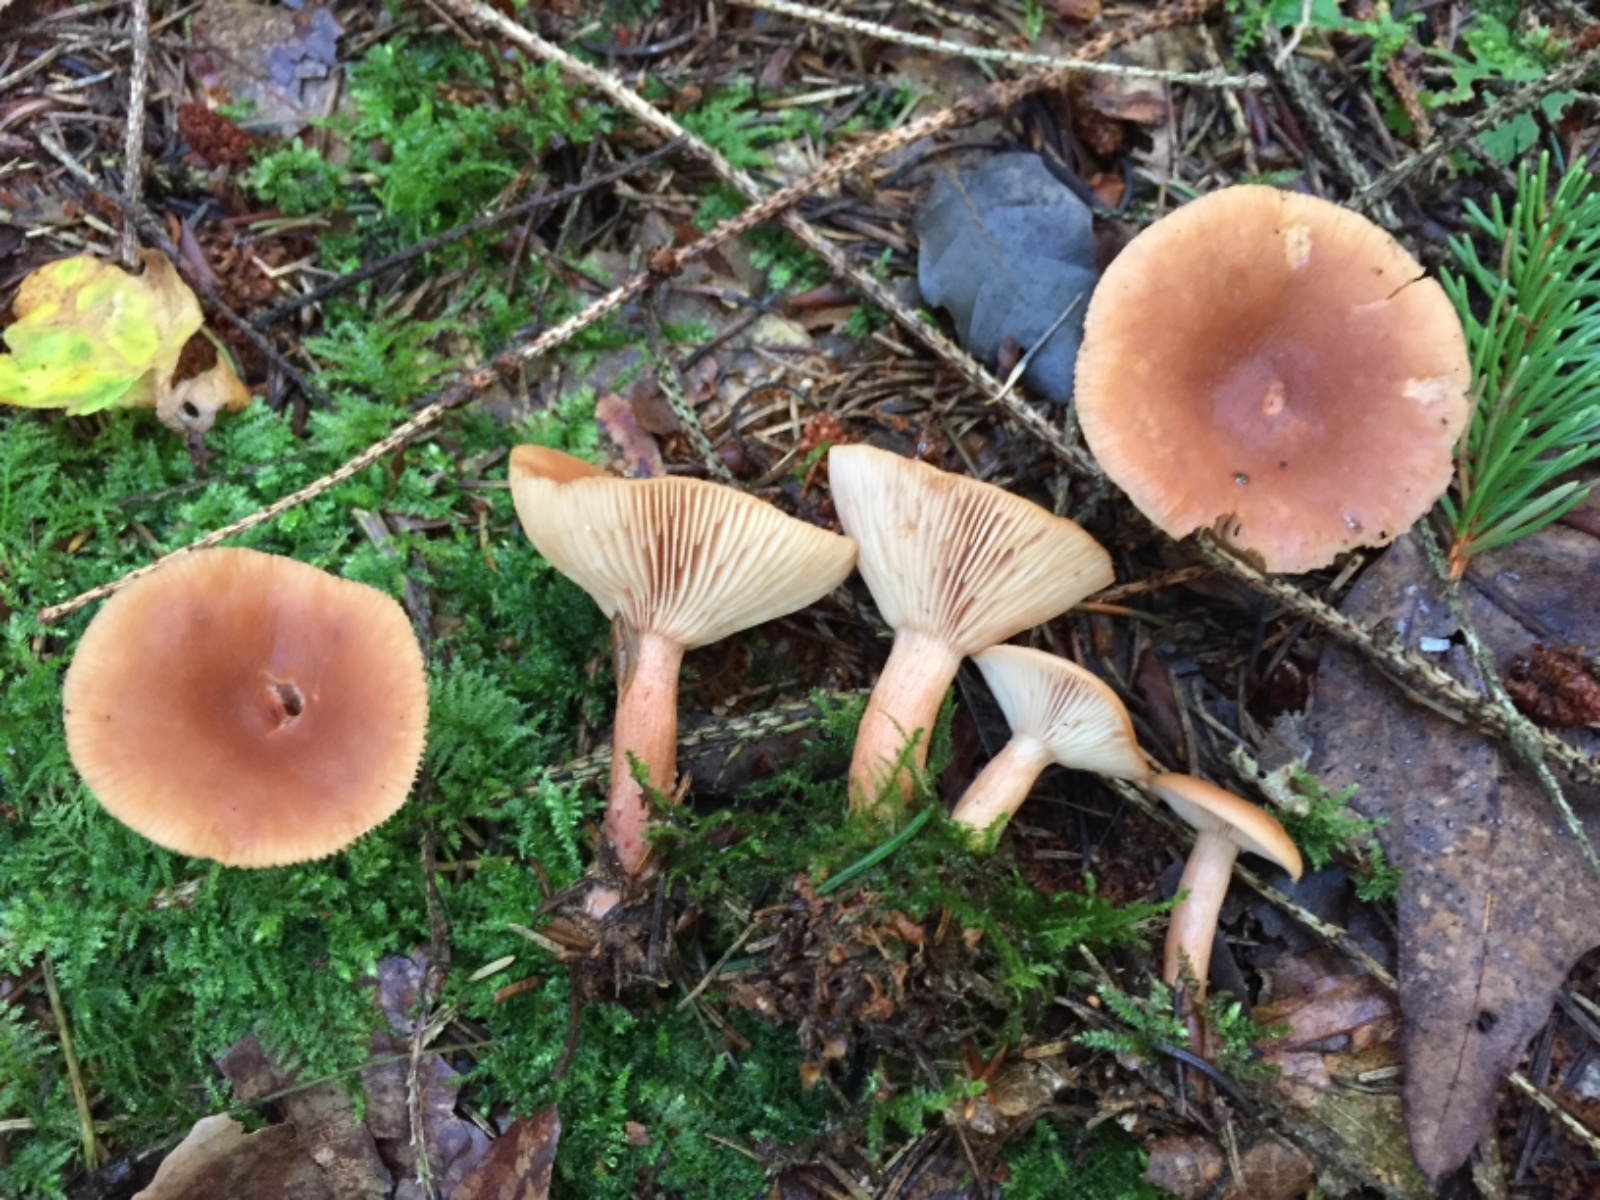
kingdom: Fungi
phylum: Basidiomycota
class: Agaricomycetes
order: Russulales
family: Russulaceae
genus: Lactarius
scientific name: Lactarius tabidus
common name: rynket mælkehat
